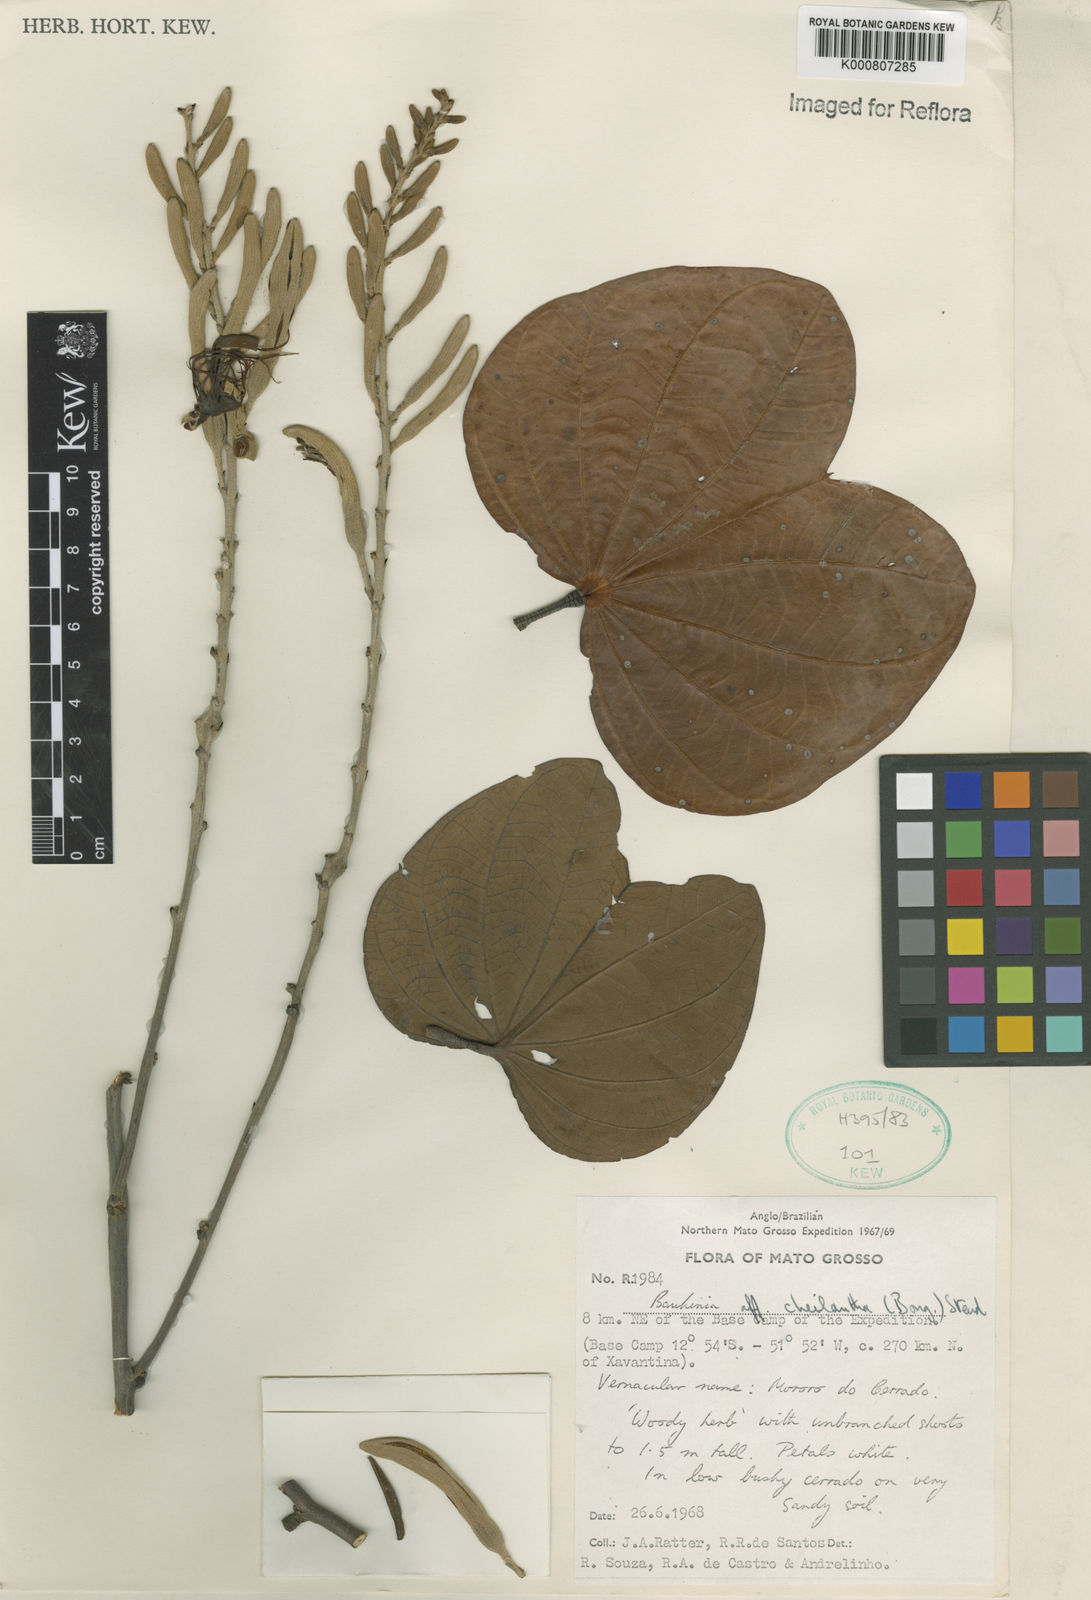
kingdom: Plantae
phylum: Tracheophyta
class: Magnoliopsida
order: Fabales
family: Fabaceae
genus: Bauhinia
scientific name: Bauhinia cheilantha
